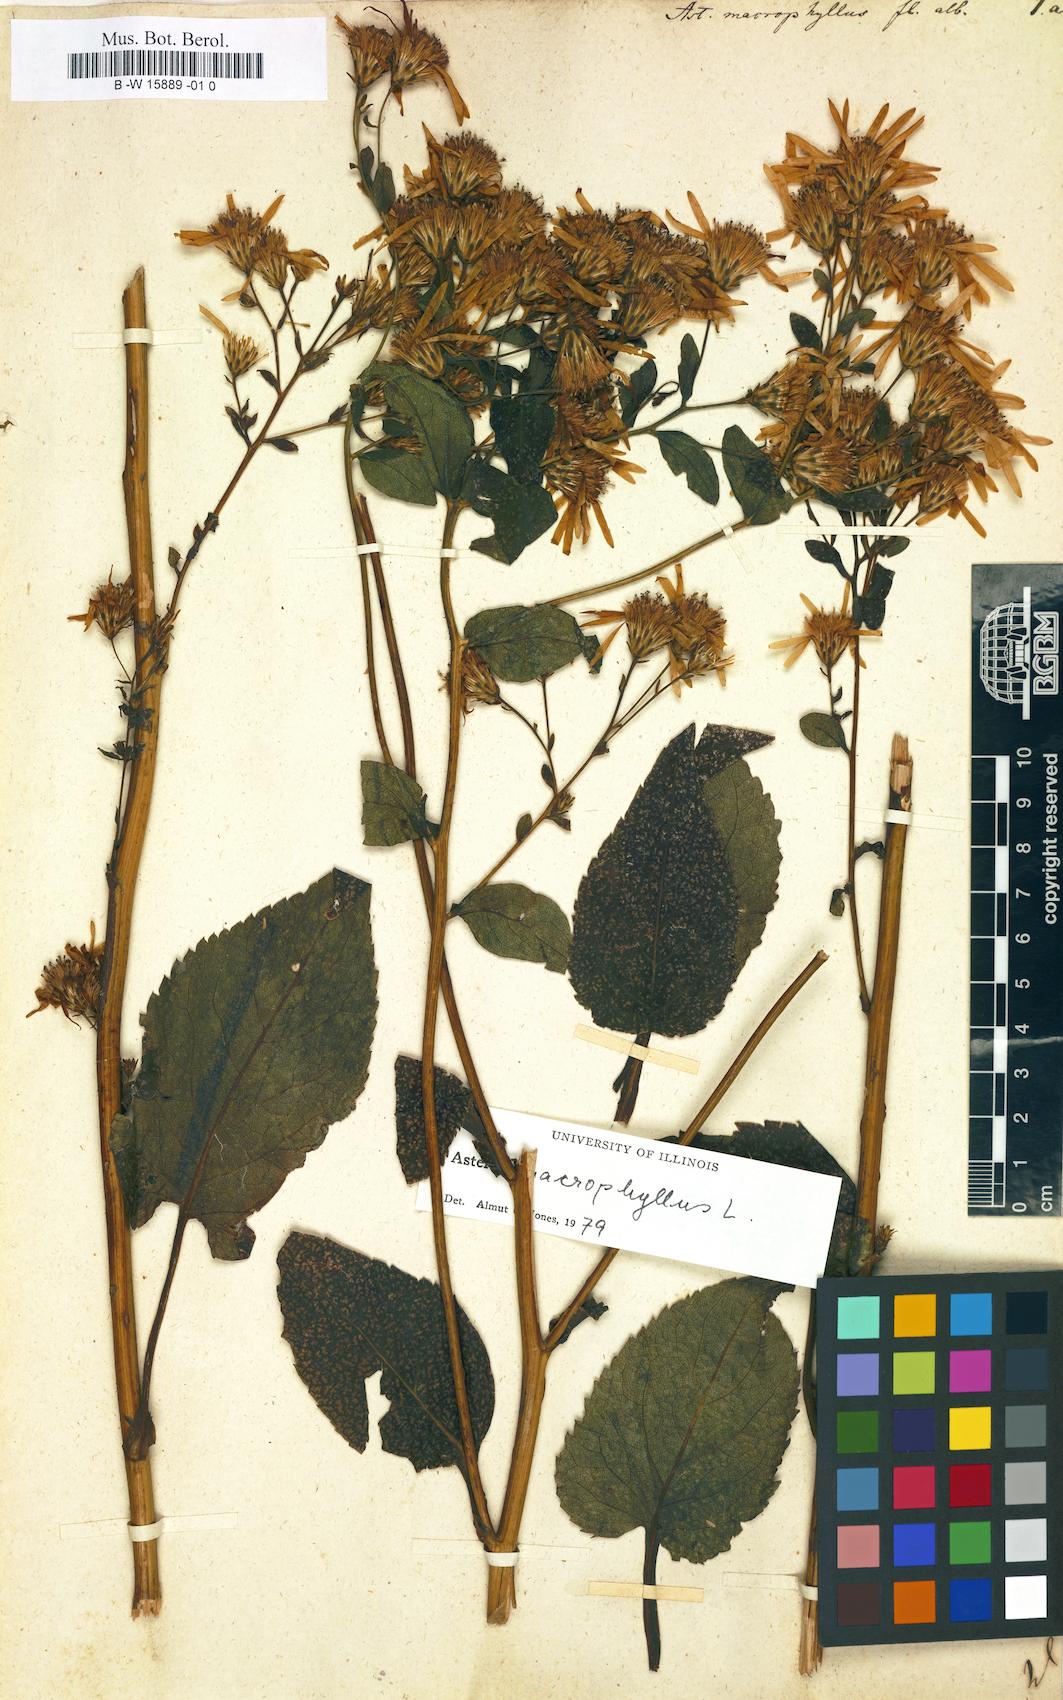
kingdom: Plantae
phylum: Tracheophyta
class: Magnoliopsida
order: Asterales
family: Asteraceae
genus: Eurybia
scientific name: Eurybia macrophylla
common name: Big-leaved aster
